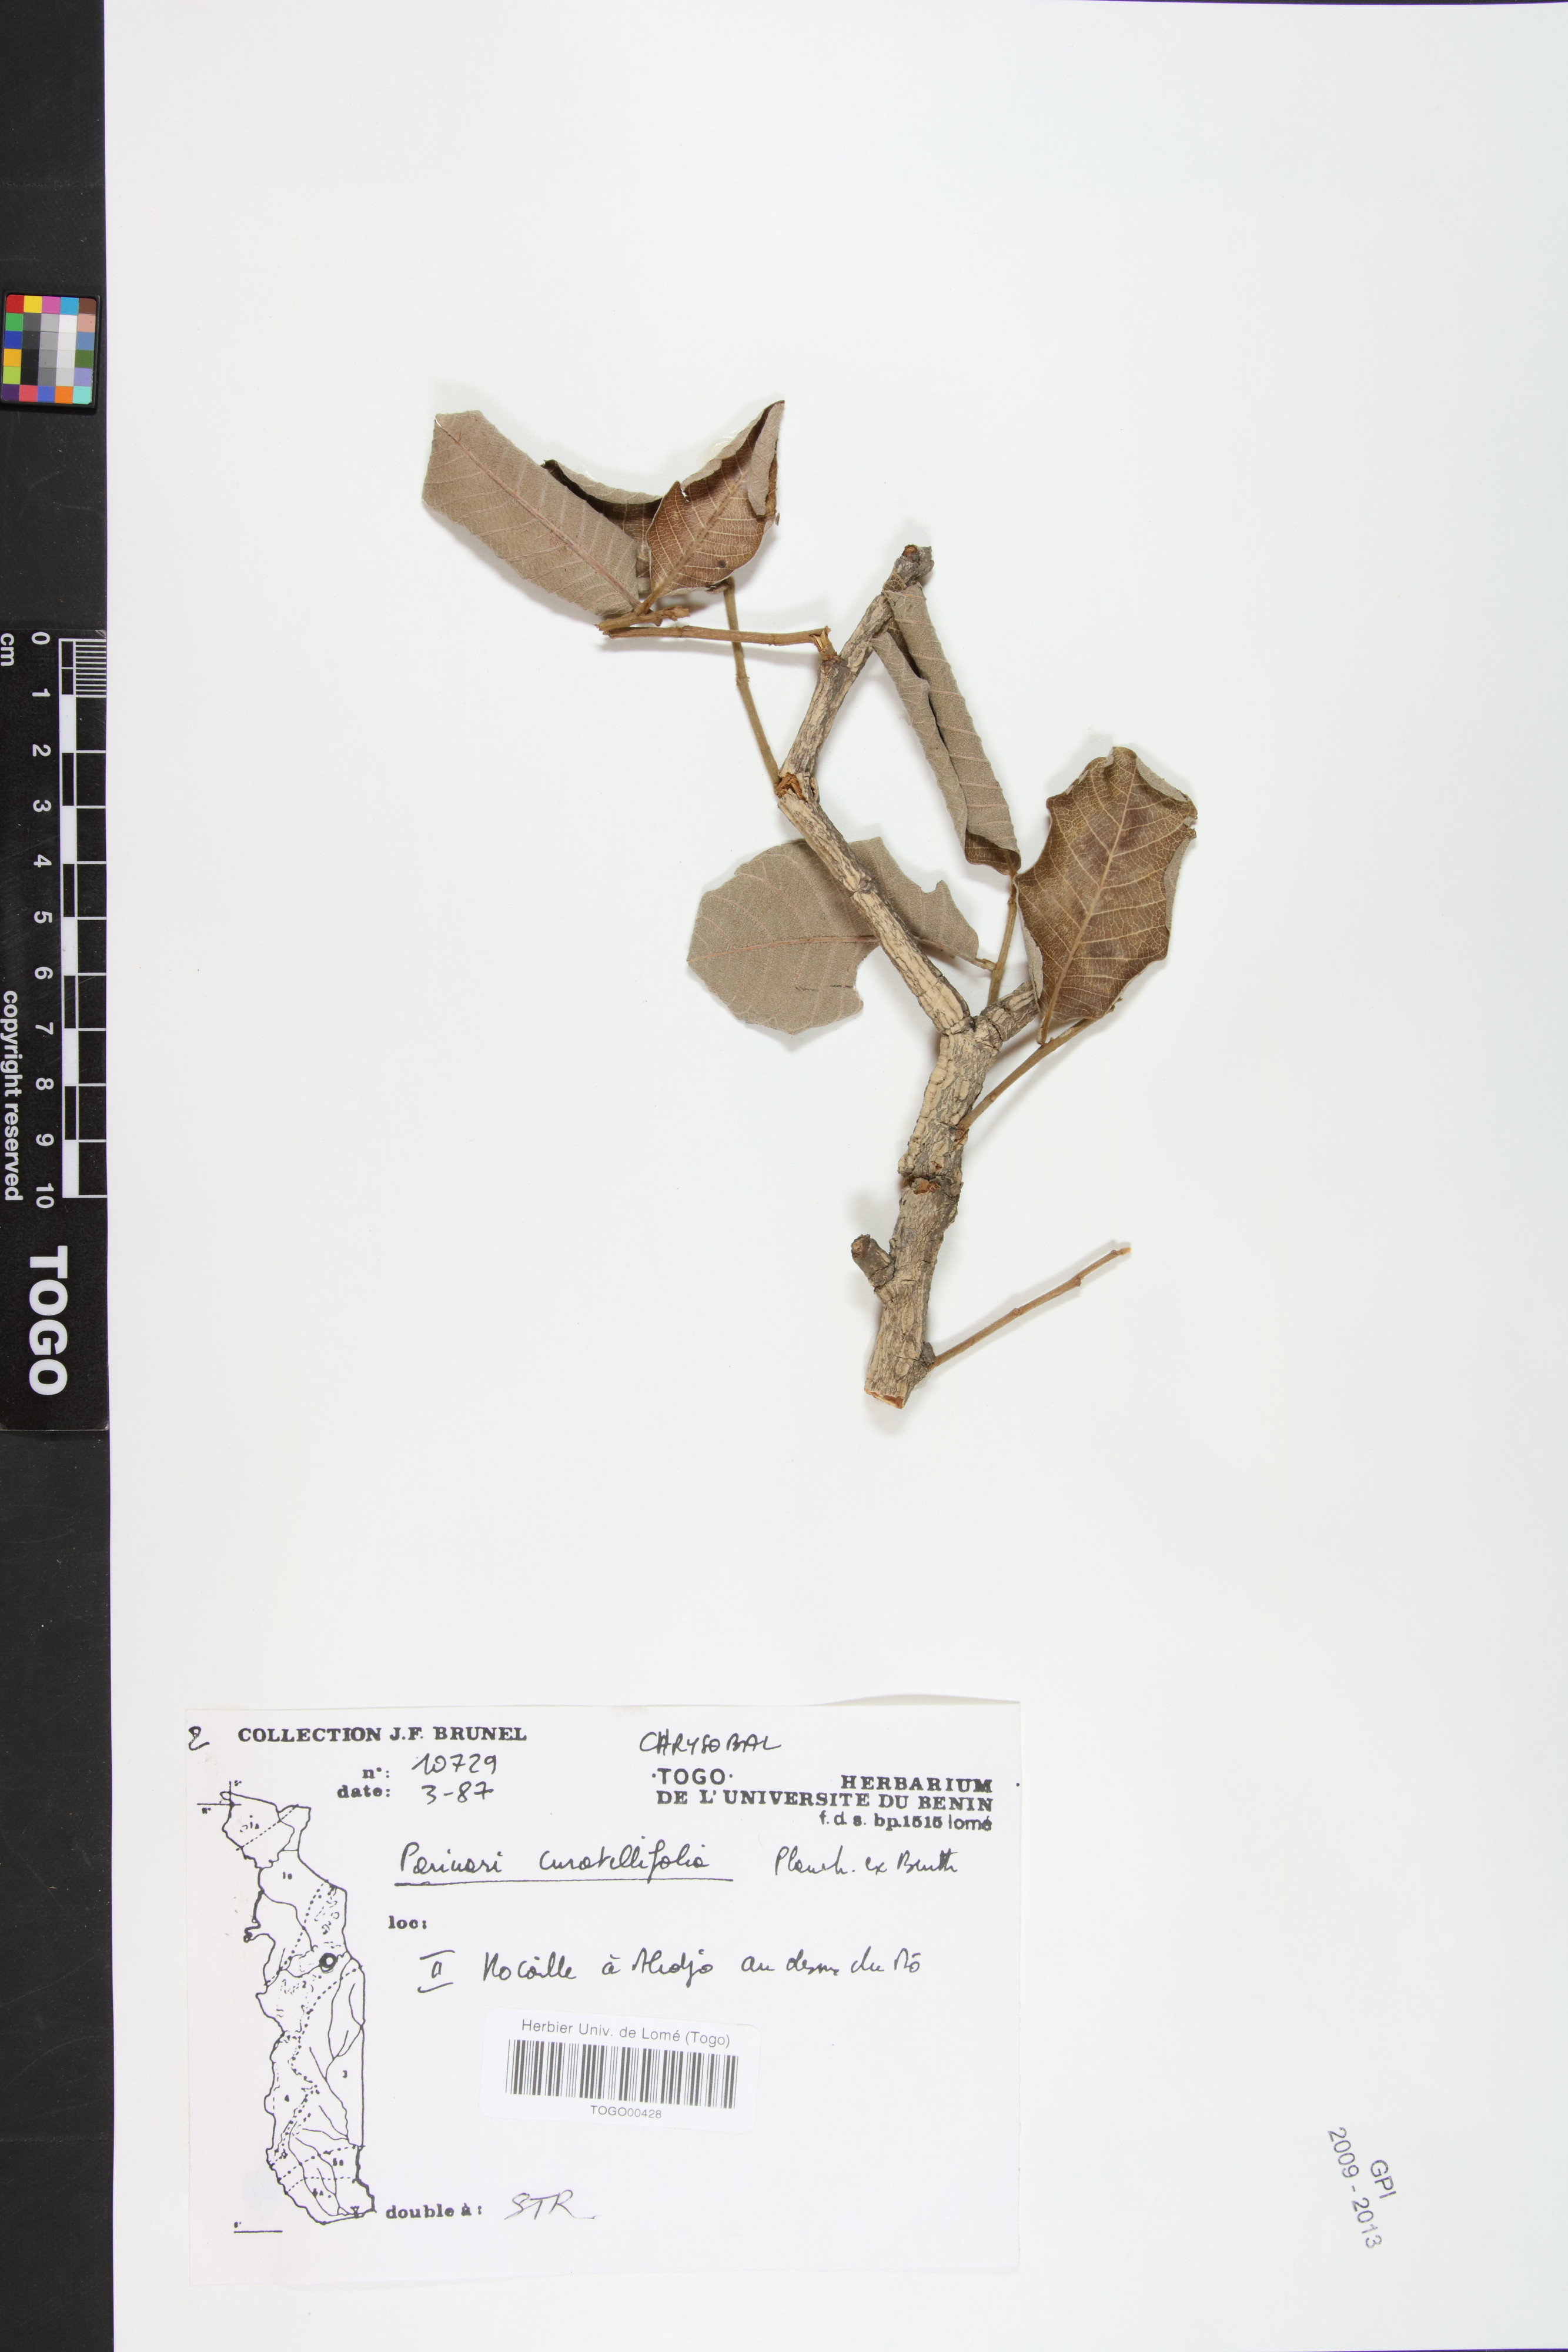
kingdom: Plantae
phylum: Tracheophyta
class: Magnoliopsida
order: Malpighiales
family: Chrysobalanaceae
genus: Parinari
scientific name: Parinari curatellifolia
